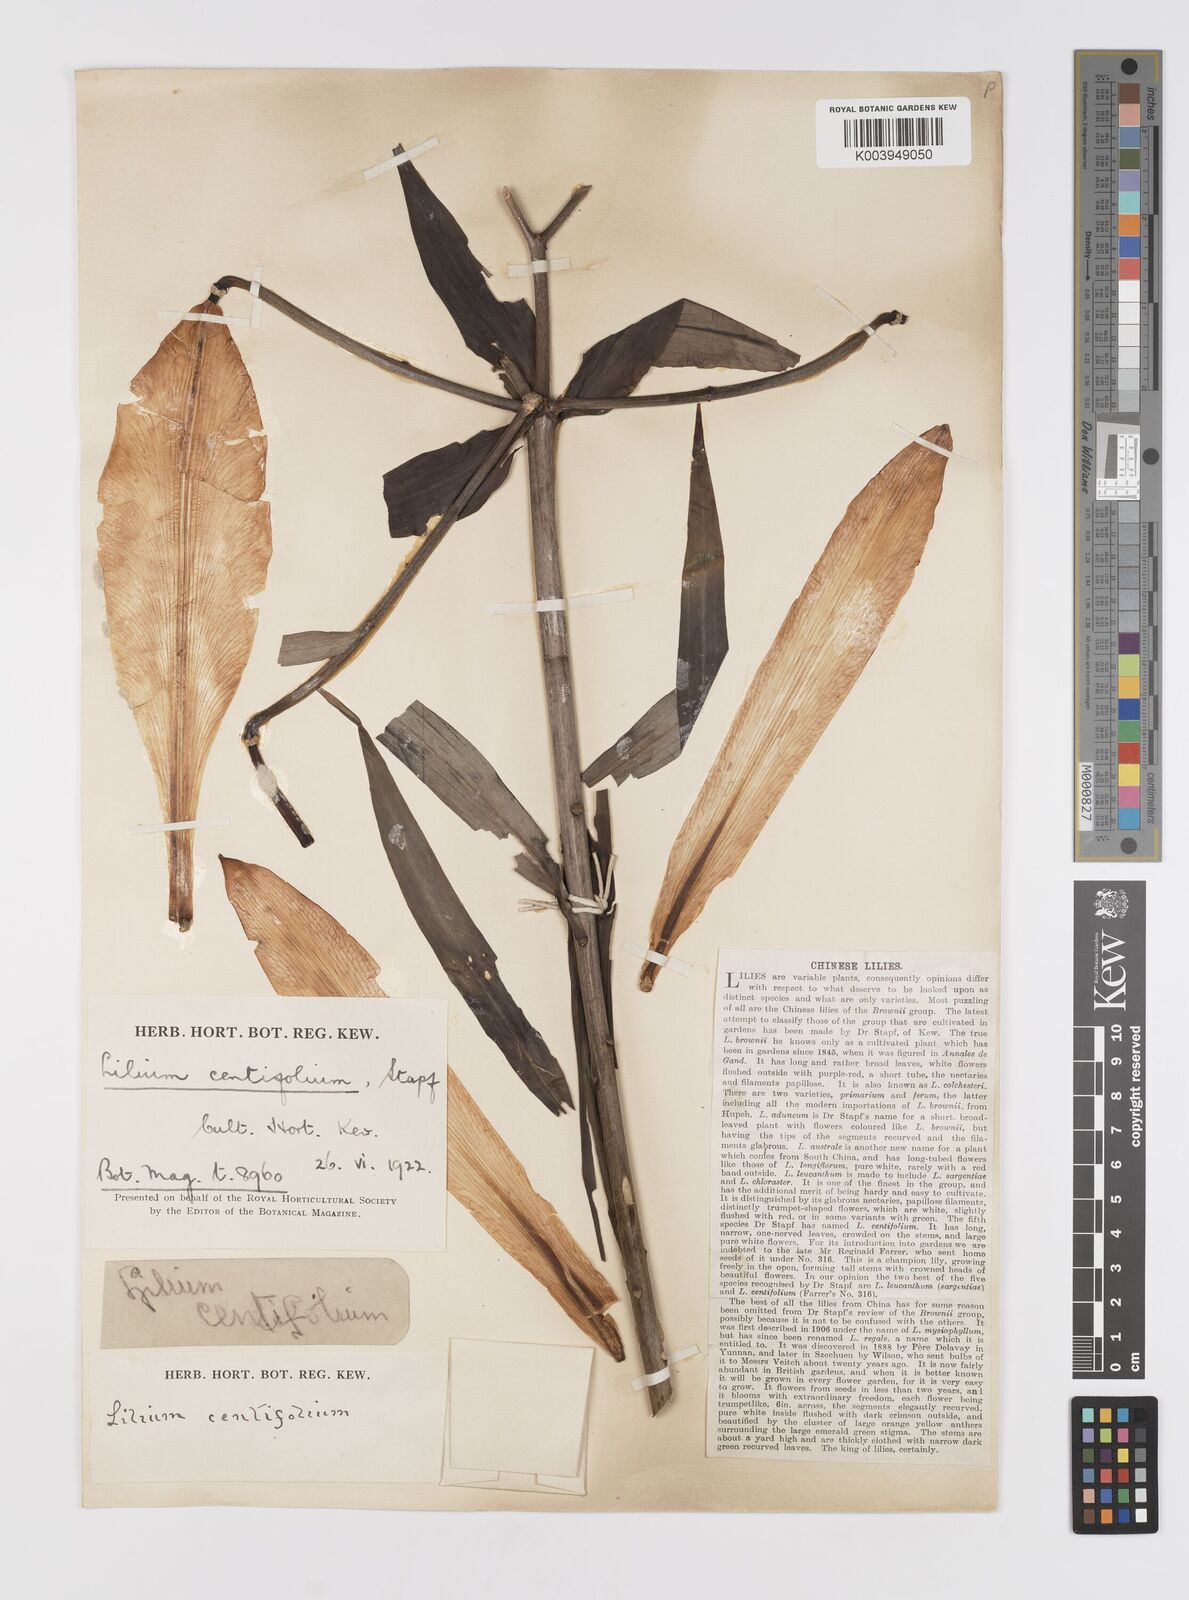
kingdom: Plantae
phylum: Tracheophyta
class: Liliopsida
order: Liliales
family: Liliaceae
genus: Lilium
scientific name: Lilium leucanthum
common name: Chinese white lily
